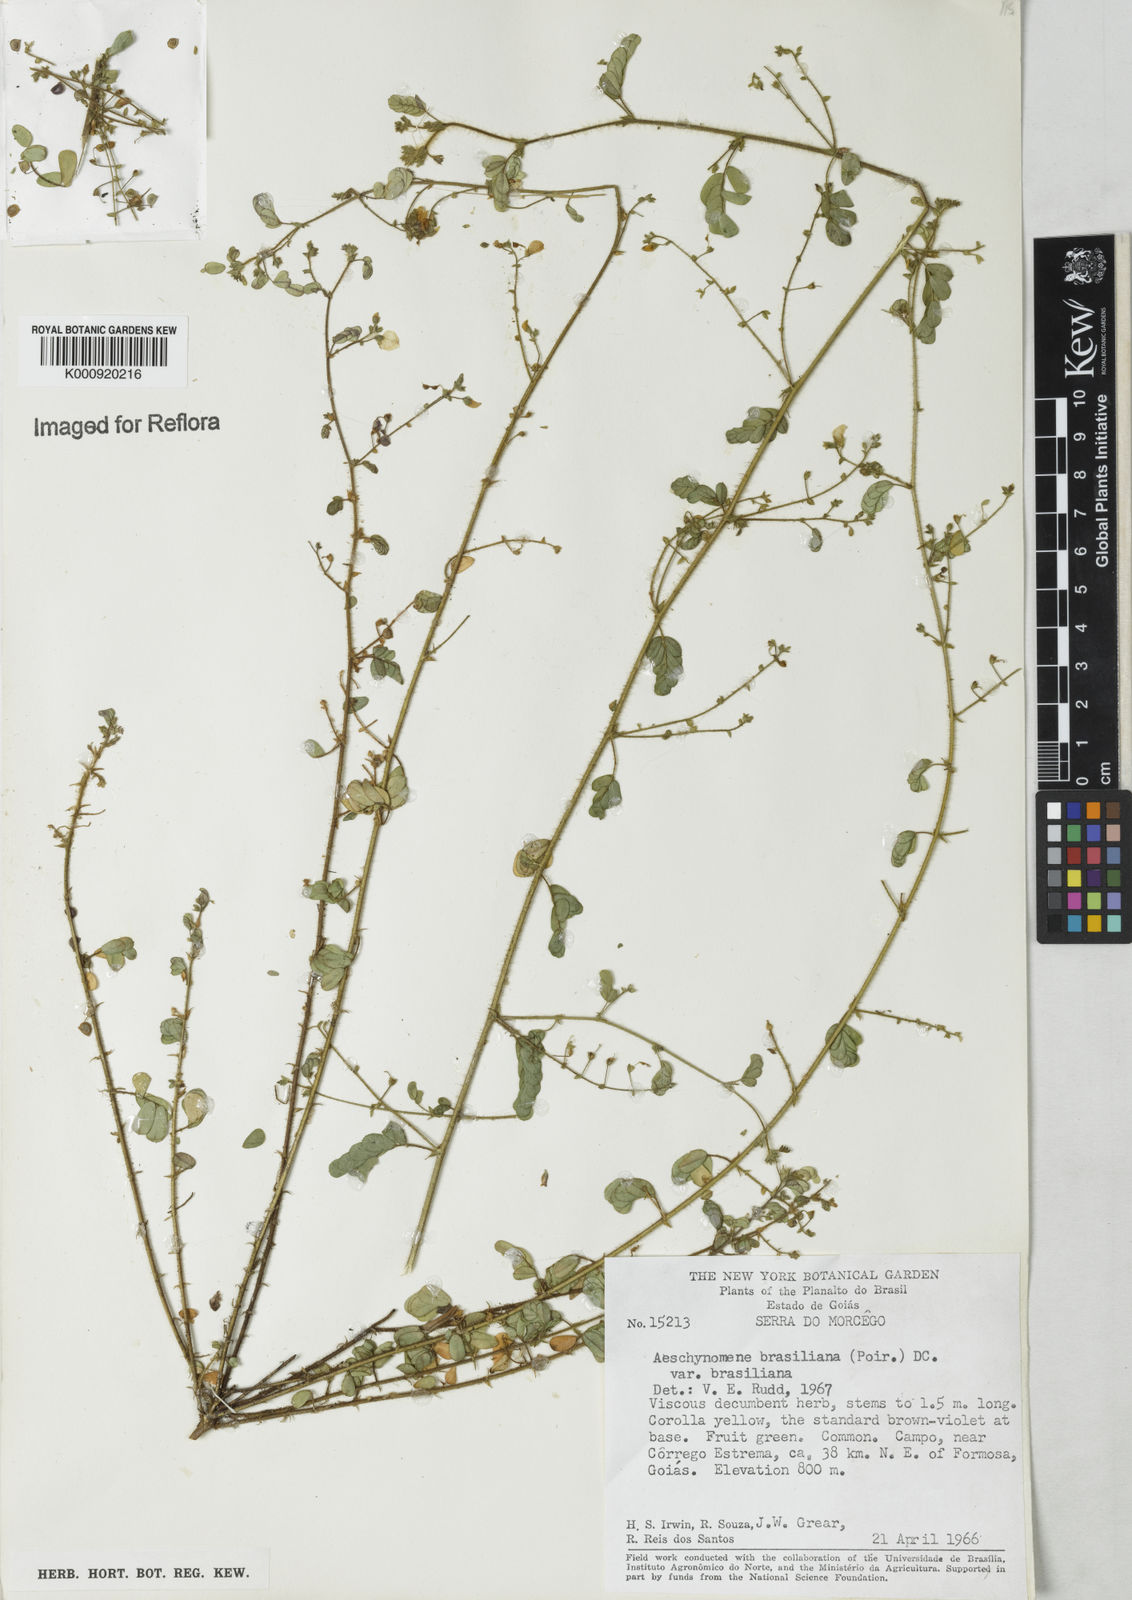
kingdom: Plantae
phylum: Tracheophyta
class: Magnoliopsida
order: Fabales
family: Fabaceae
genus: Ctenodon
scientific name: Ctenodon brasilianus
